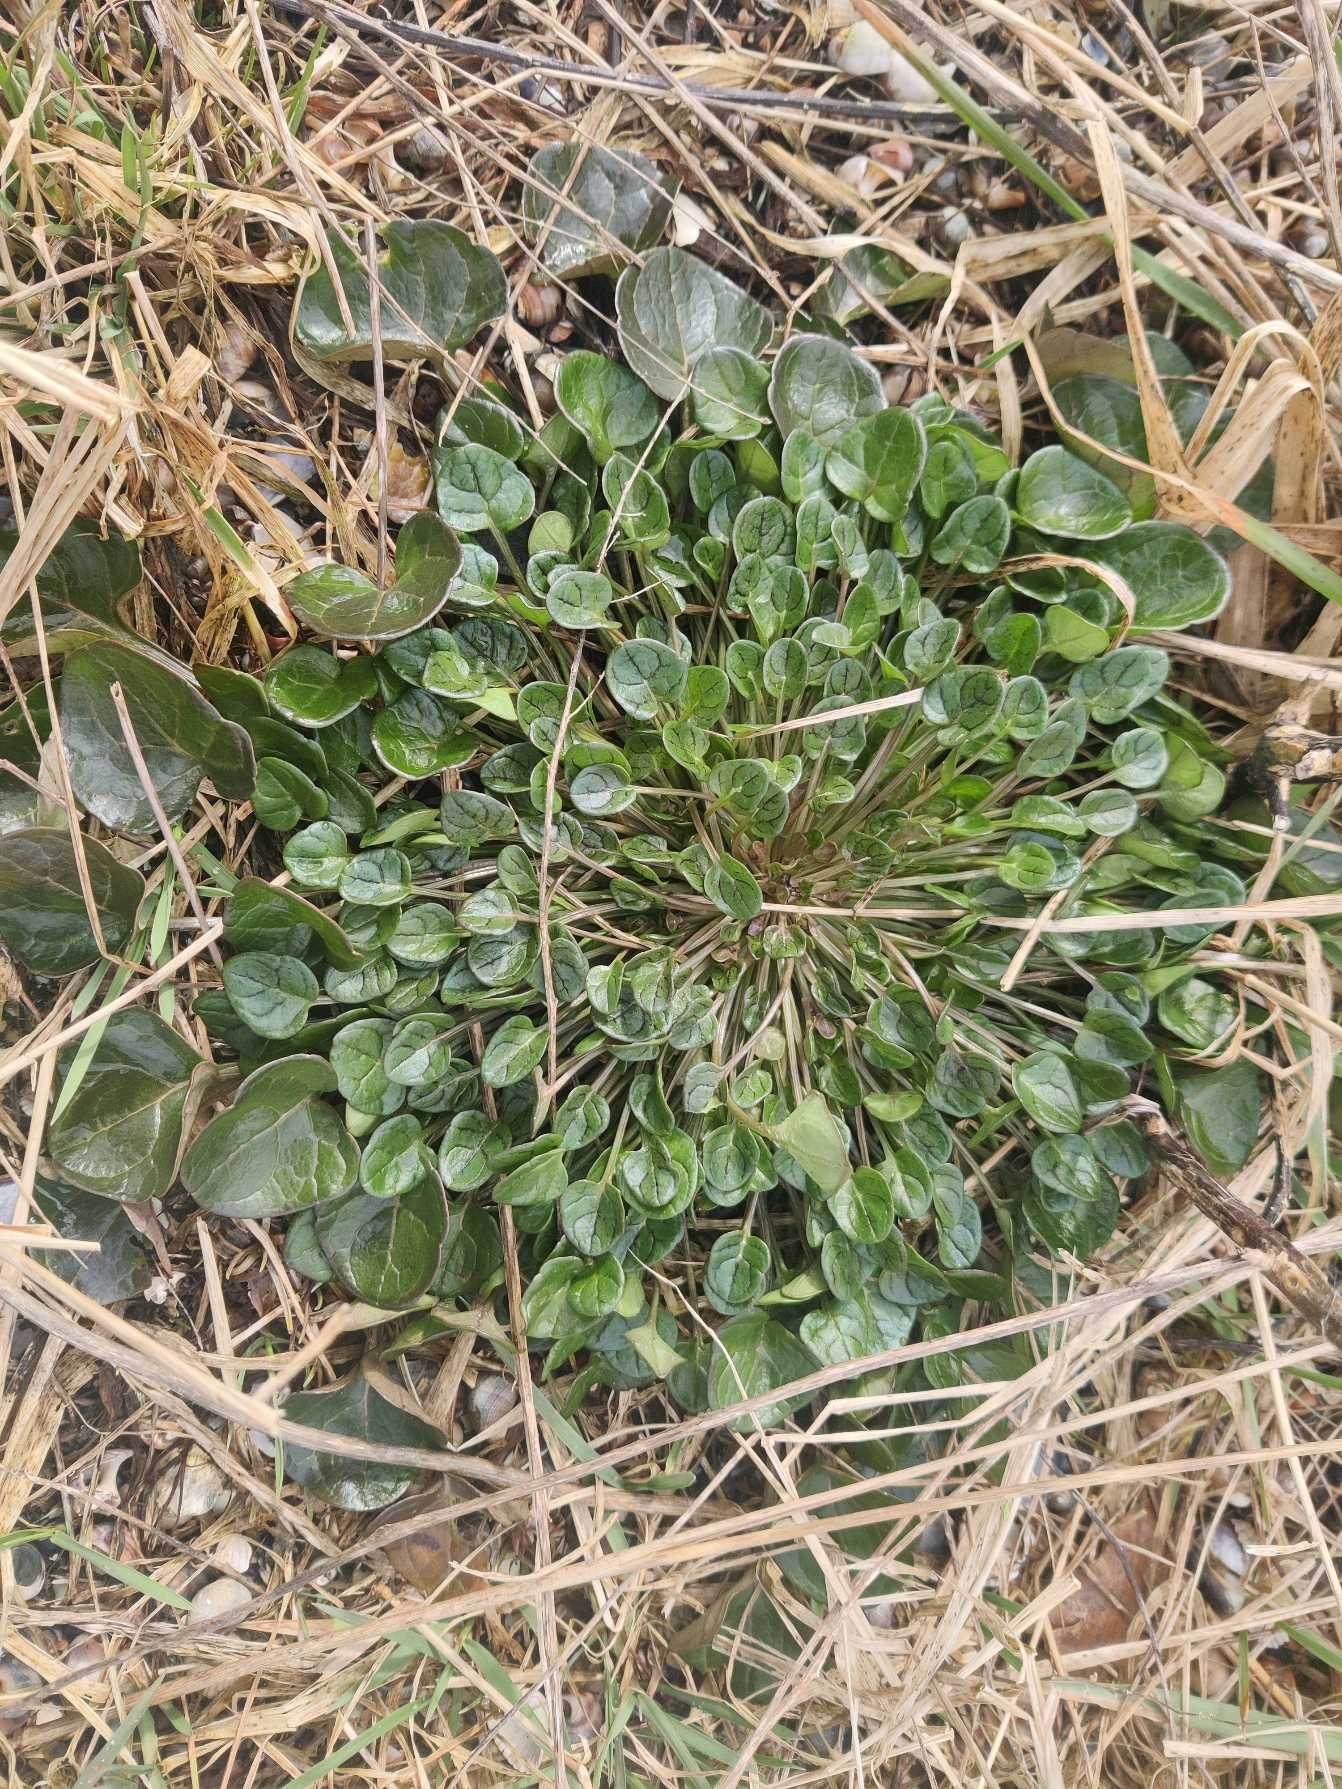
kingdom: Plantae
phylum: Tracheophyta
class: Magnoliopsida
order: Brassicales
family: Brassicaceae
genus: Cochlearia
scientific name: Cochlearia officinalis
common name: Læge-kokleare
